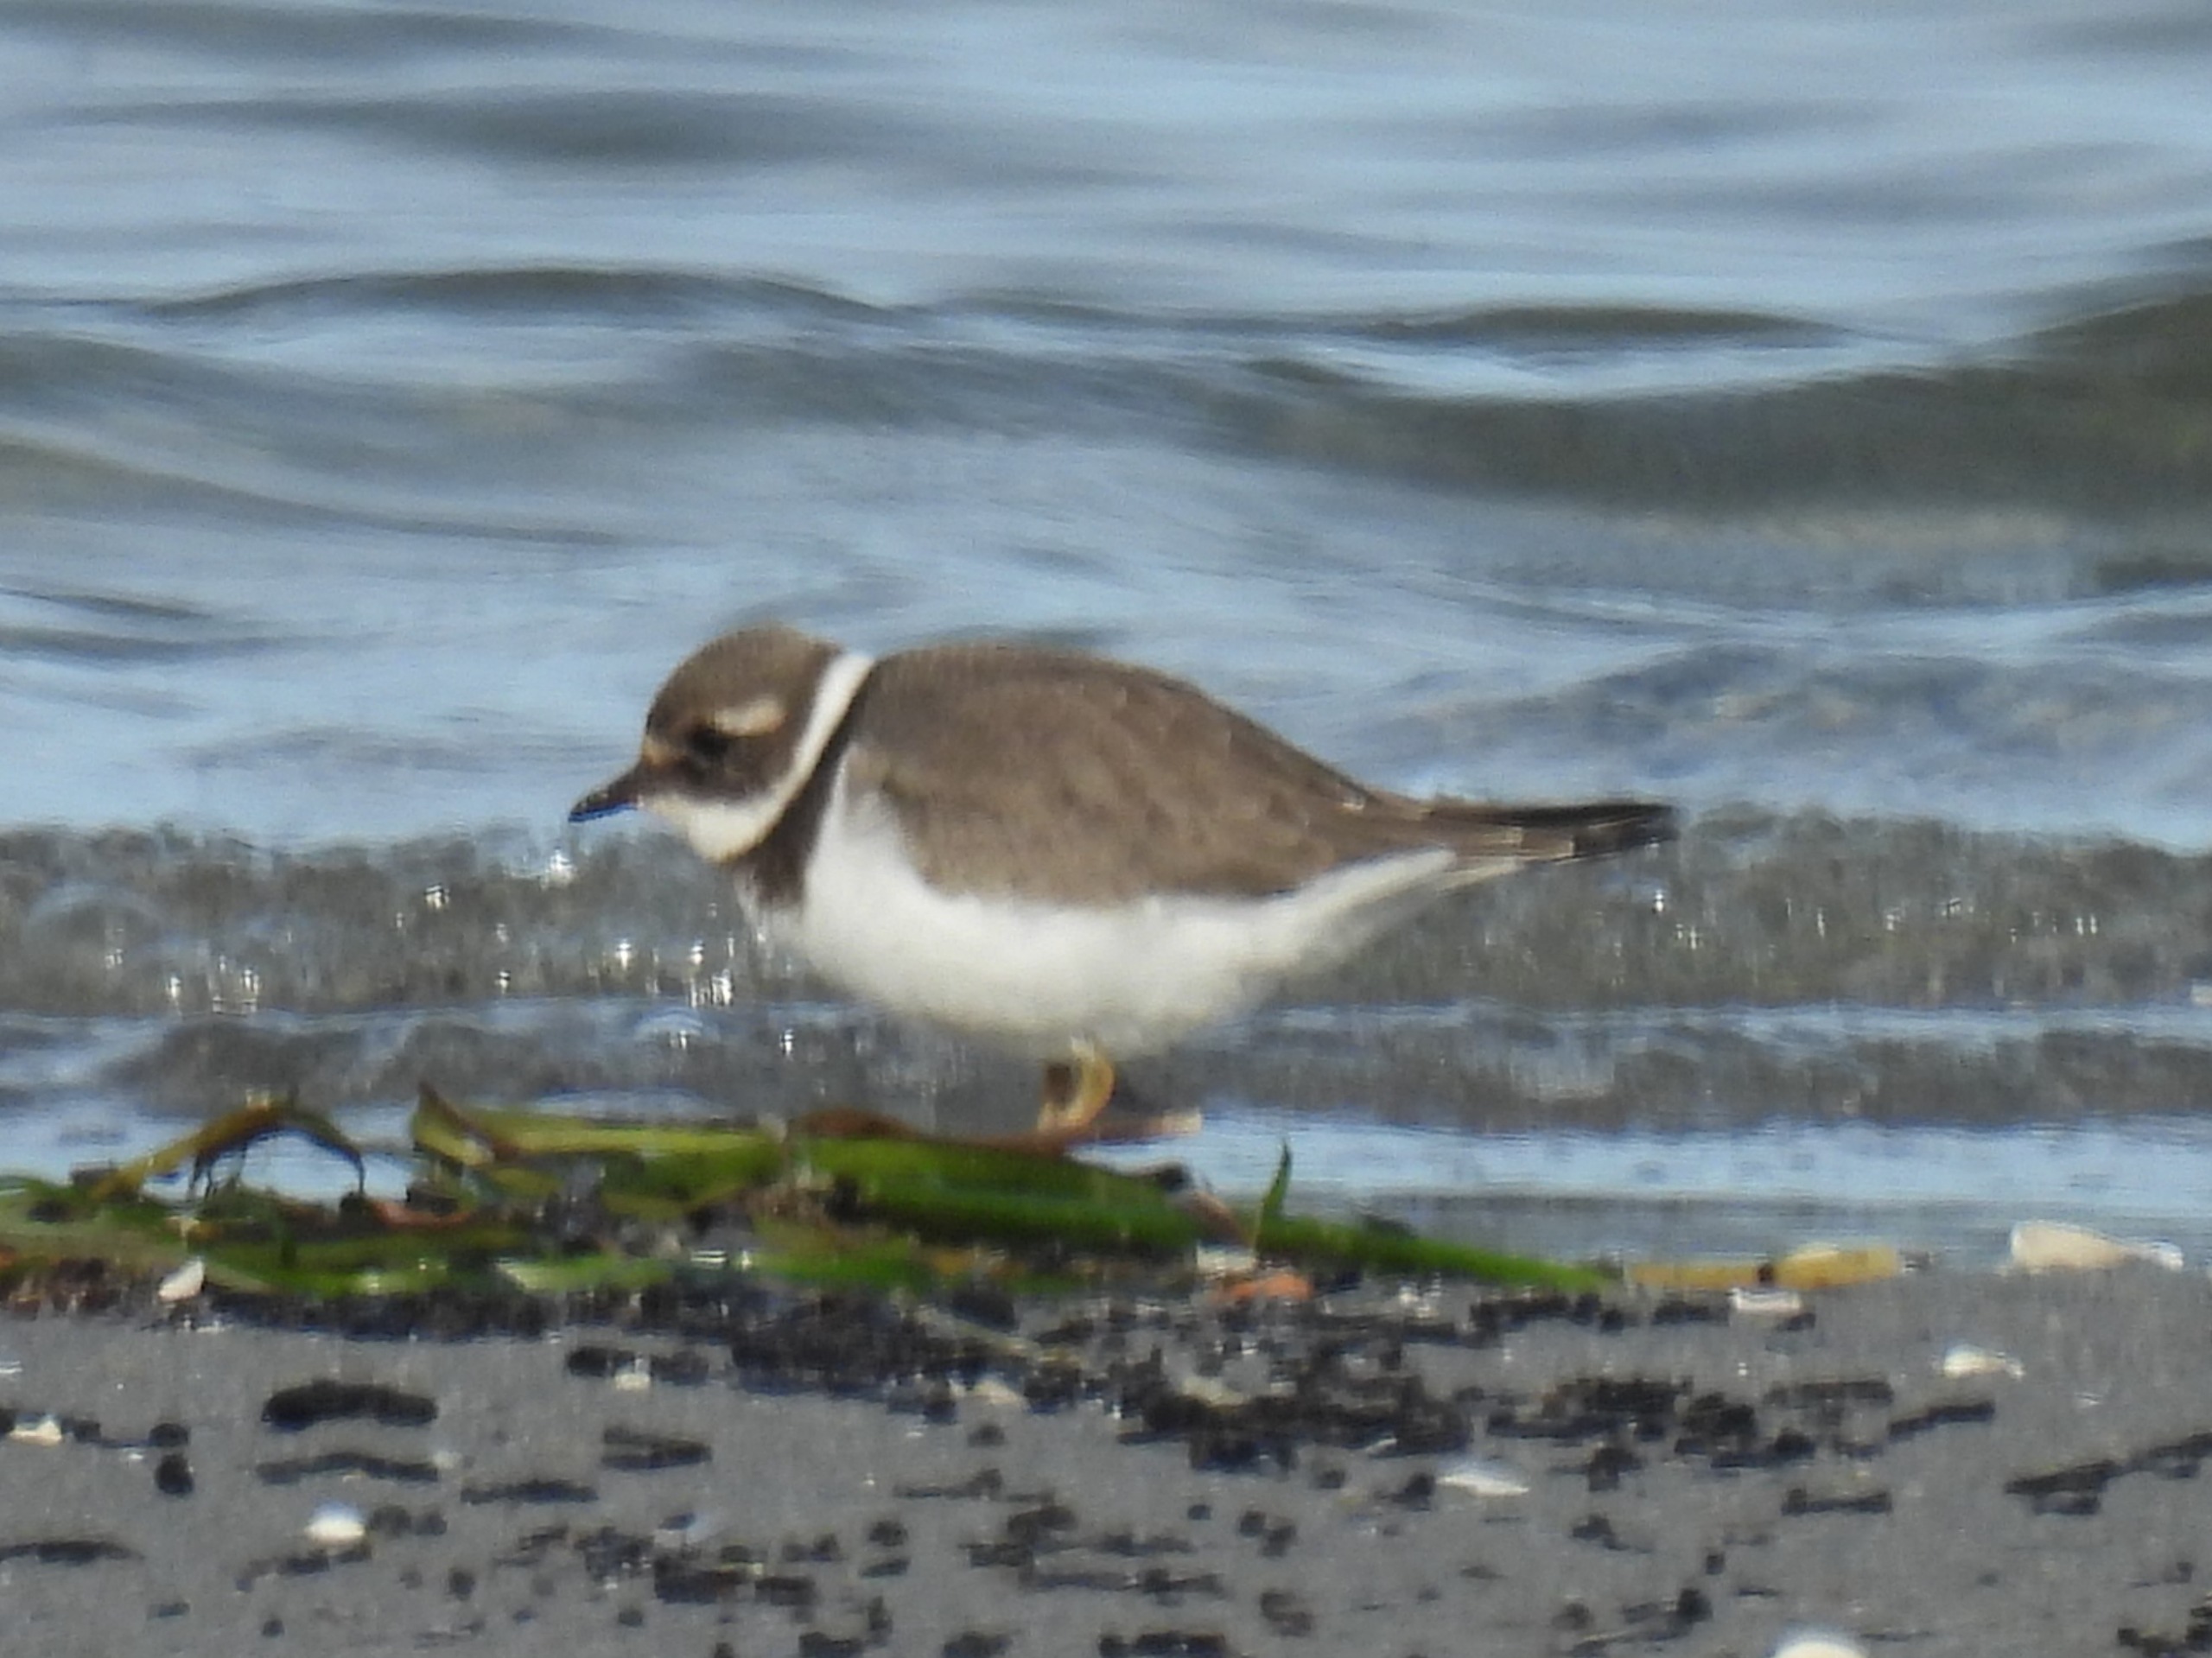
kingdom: Animalia
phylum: Chordata
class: Aves
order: Charadriiformes
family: Charadriidae
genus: Charadrius
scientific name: Charadrius hiaticula
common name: Stor præstekrave
